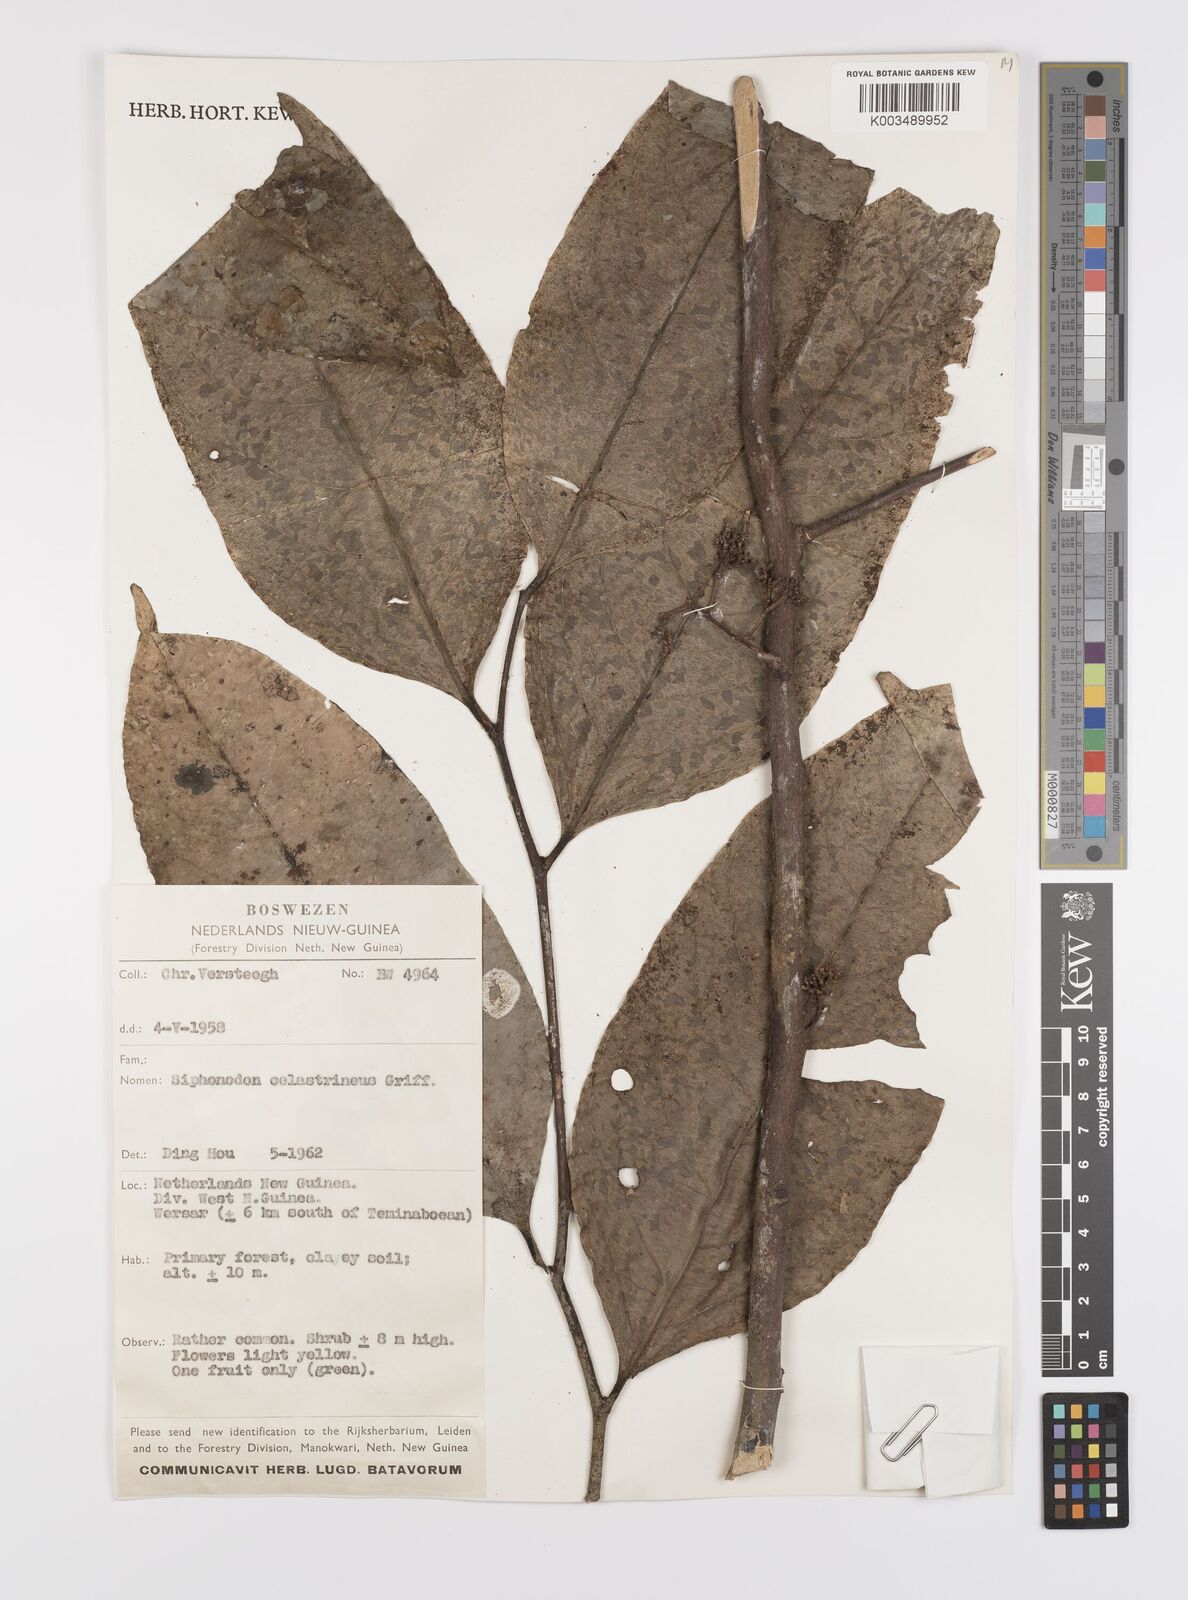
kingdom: Plantae
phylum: Tracheophyta
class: Magnoliopsida
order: Celastrales
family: Celastraceae
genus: Siphonodon
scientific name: Siphonodon celastrineus
